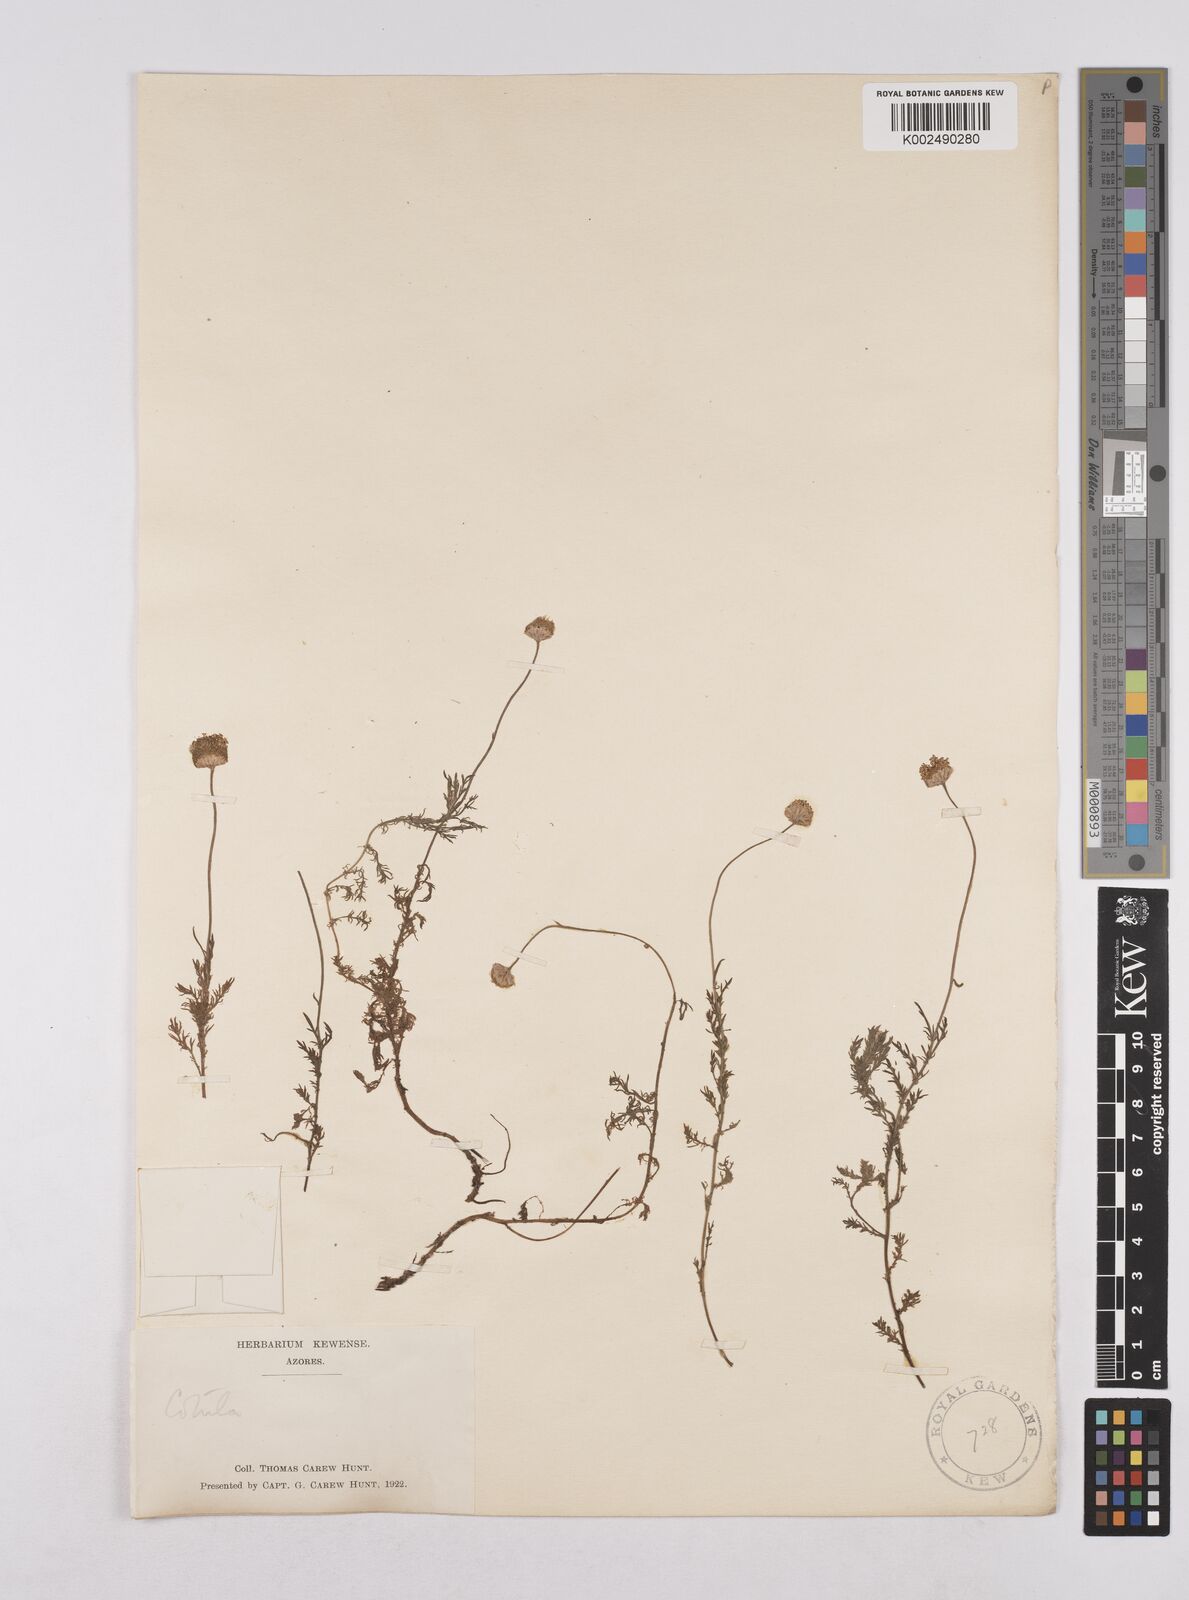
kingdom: Plantae
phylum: Tracheophyta
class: Magnoliopsida
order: Asterales
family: Asteraceae
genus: Cota
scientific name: Cota tinctoria
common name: Golden chamomile
